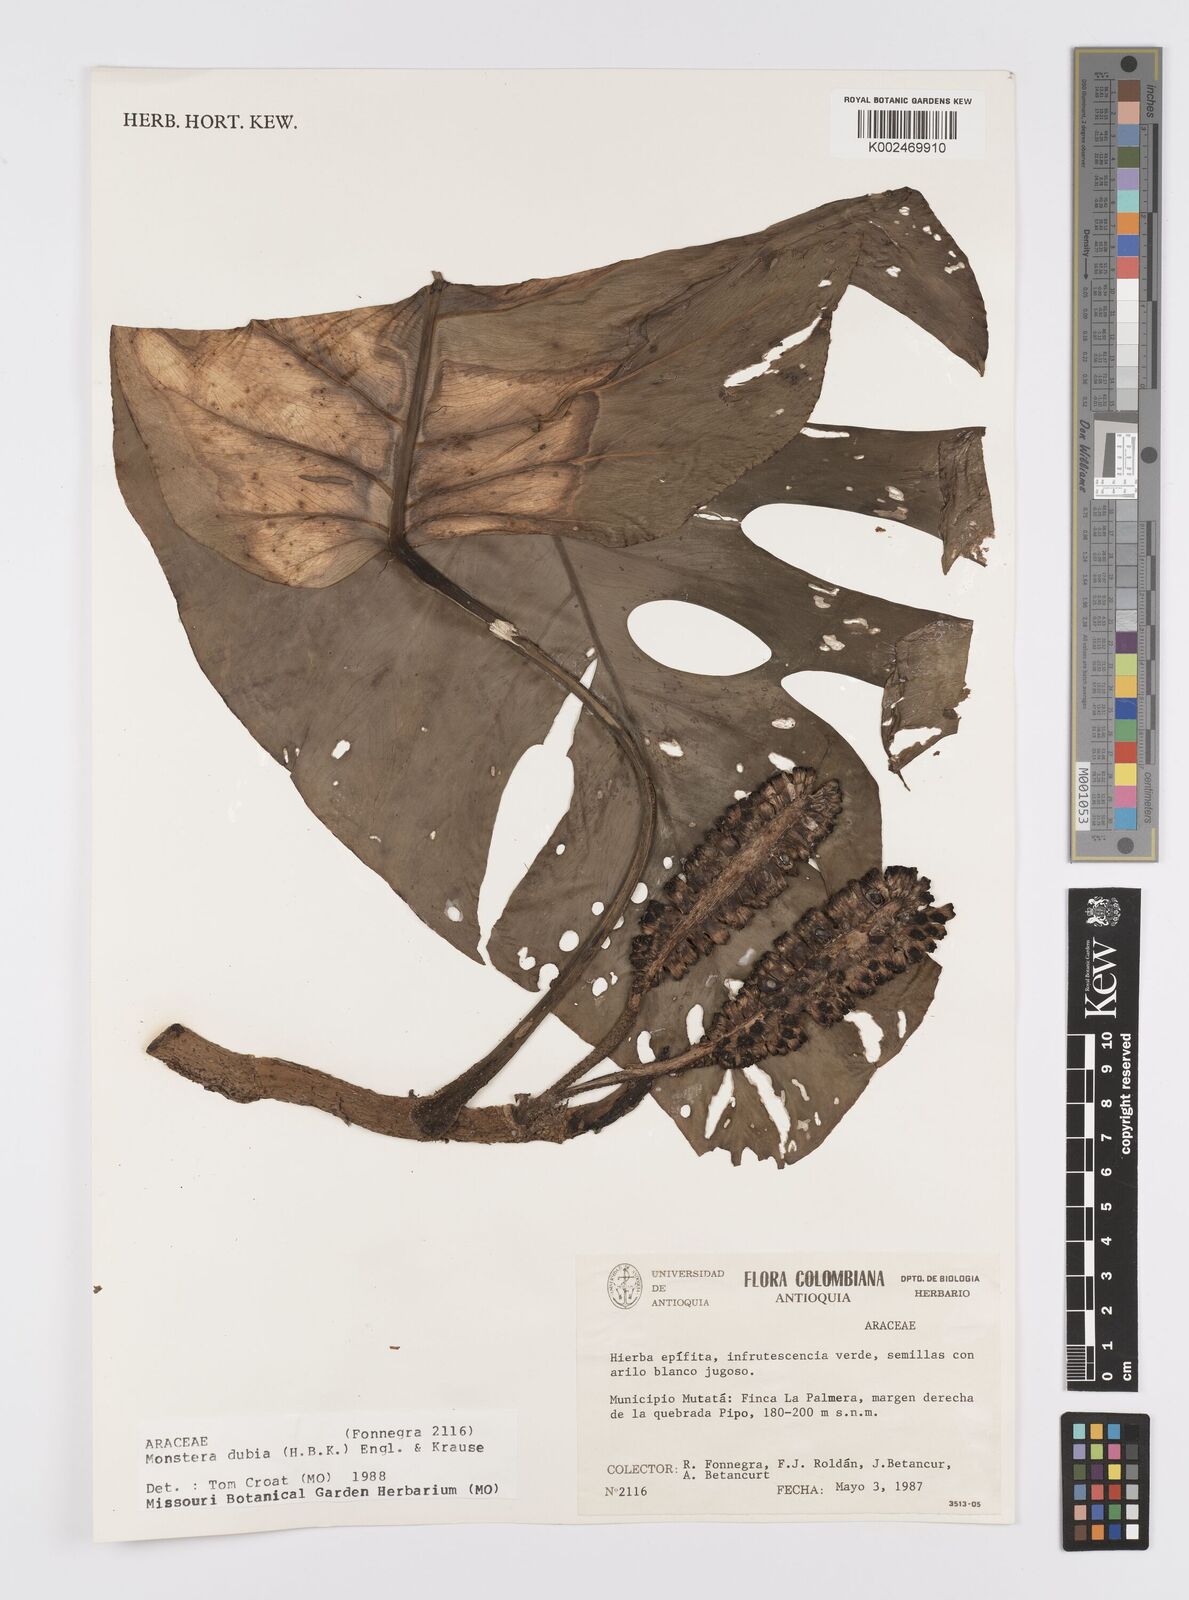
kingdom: Plantae
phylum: Tracheophyta
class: Liliopsida
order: Alismatales
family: Araceae
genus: Monstera
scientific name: Monstera dubia
